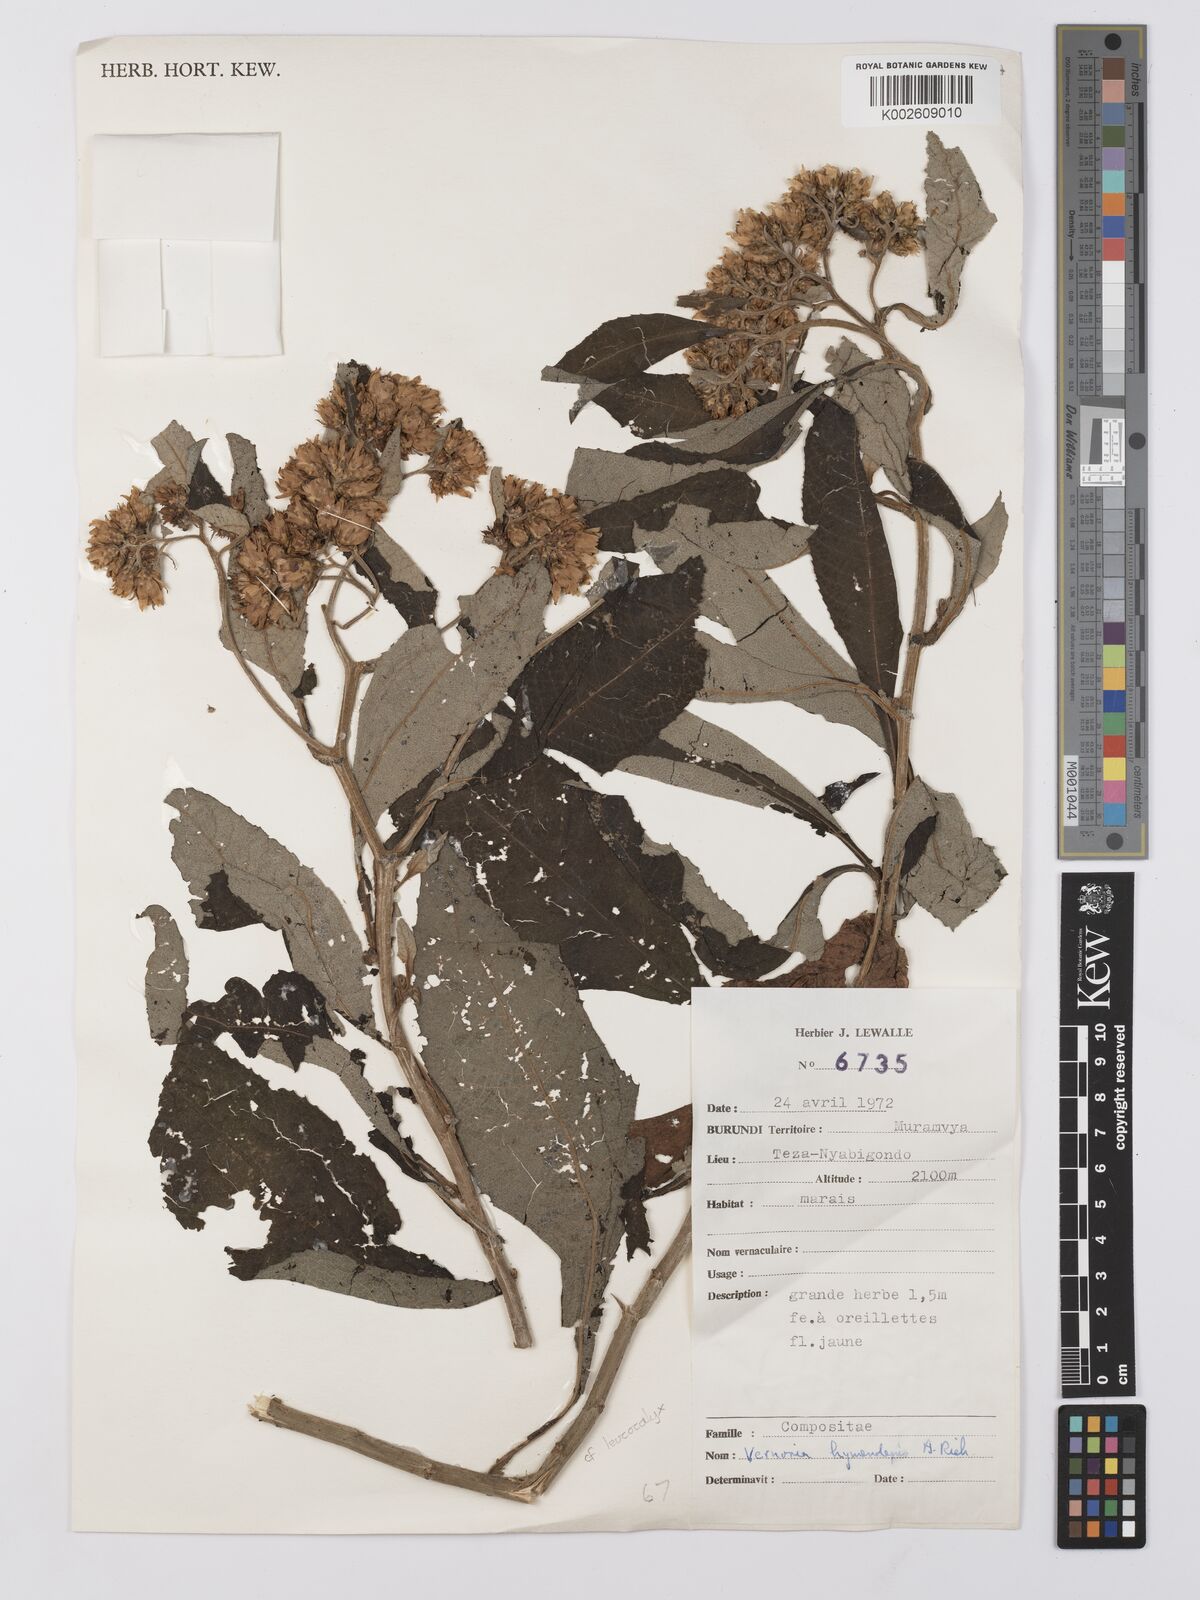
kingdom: Plantae
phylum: Tracheophyta
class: Magnoliopsida
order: Asterales
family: Asteraceae
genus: Baccharoides
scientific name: Baccharoides kirungae
